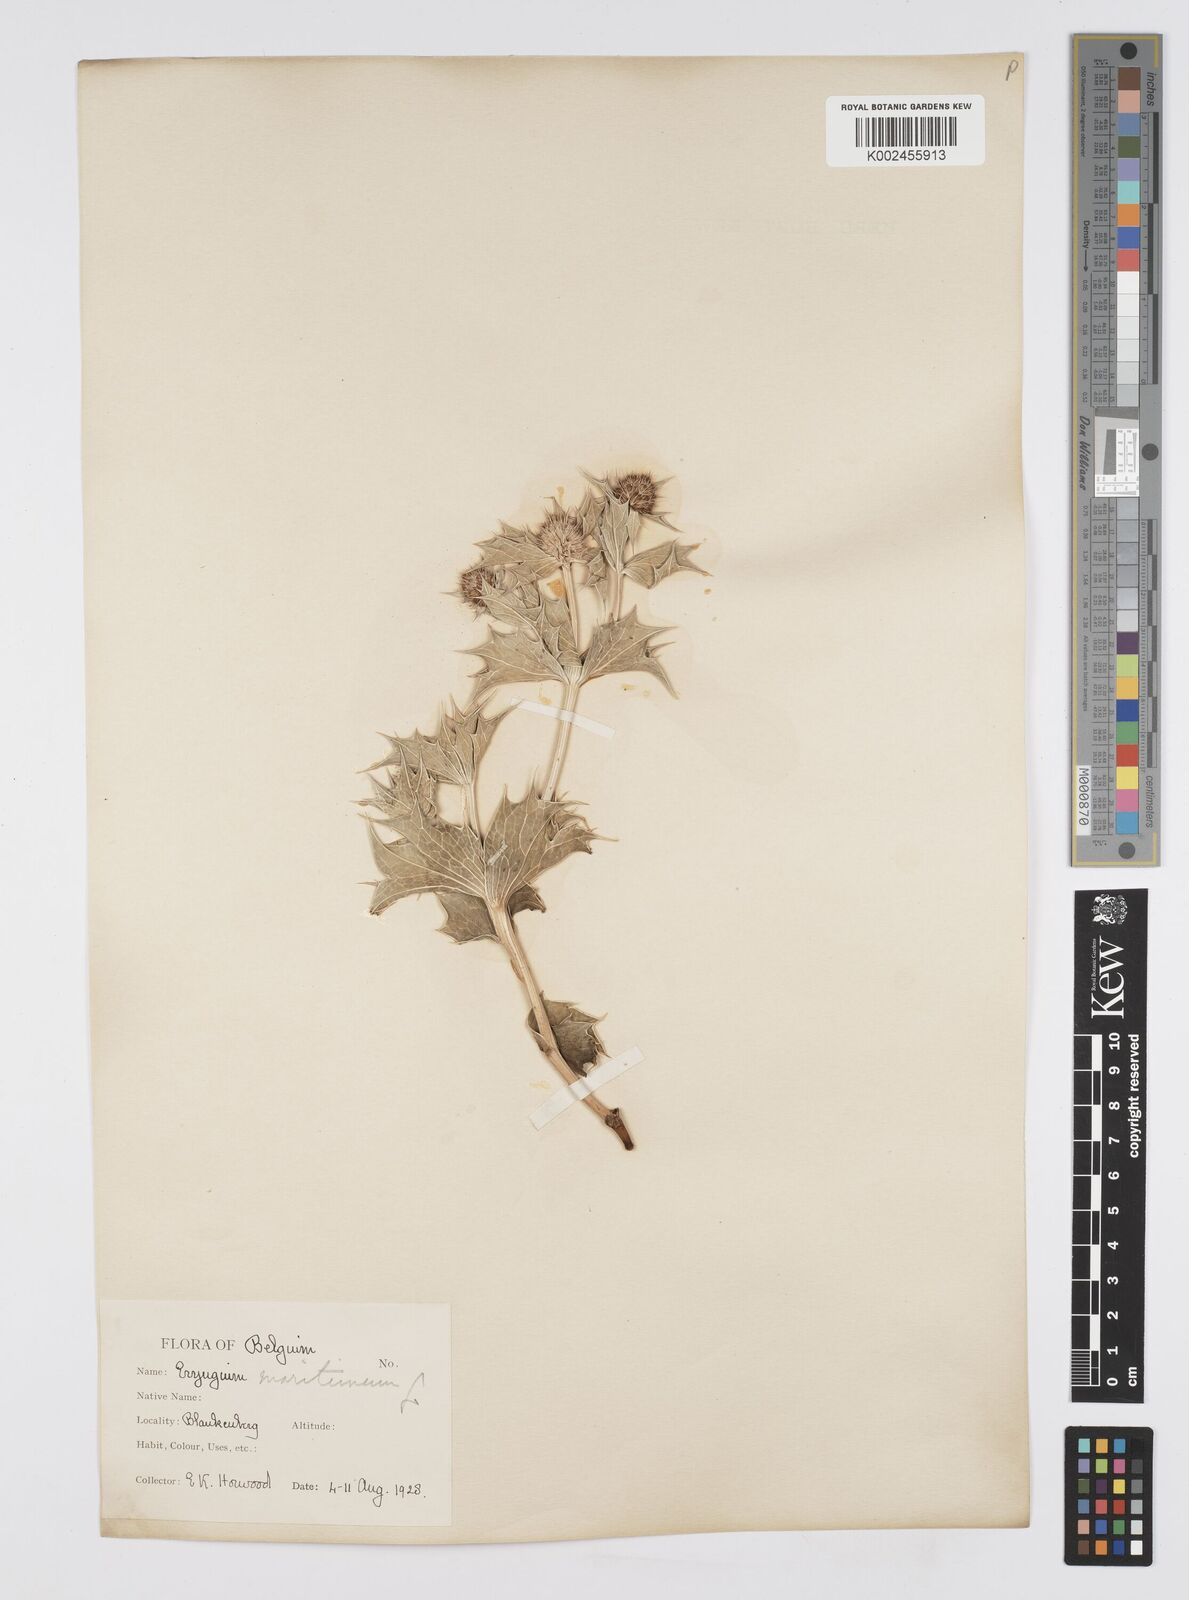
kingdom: Plantae
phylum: Tracheophyta
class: Magnoliopsida
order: Apiales
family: Apiaceae
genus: Eryngium
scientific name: Eryngium maritimum
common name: Sea-holly
